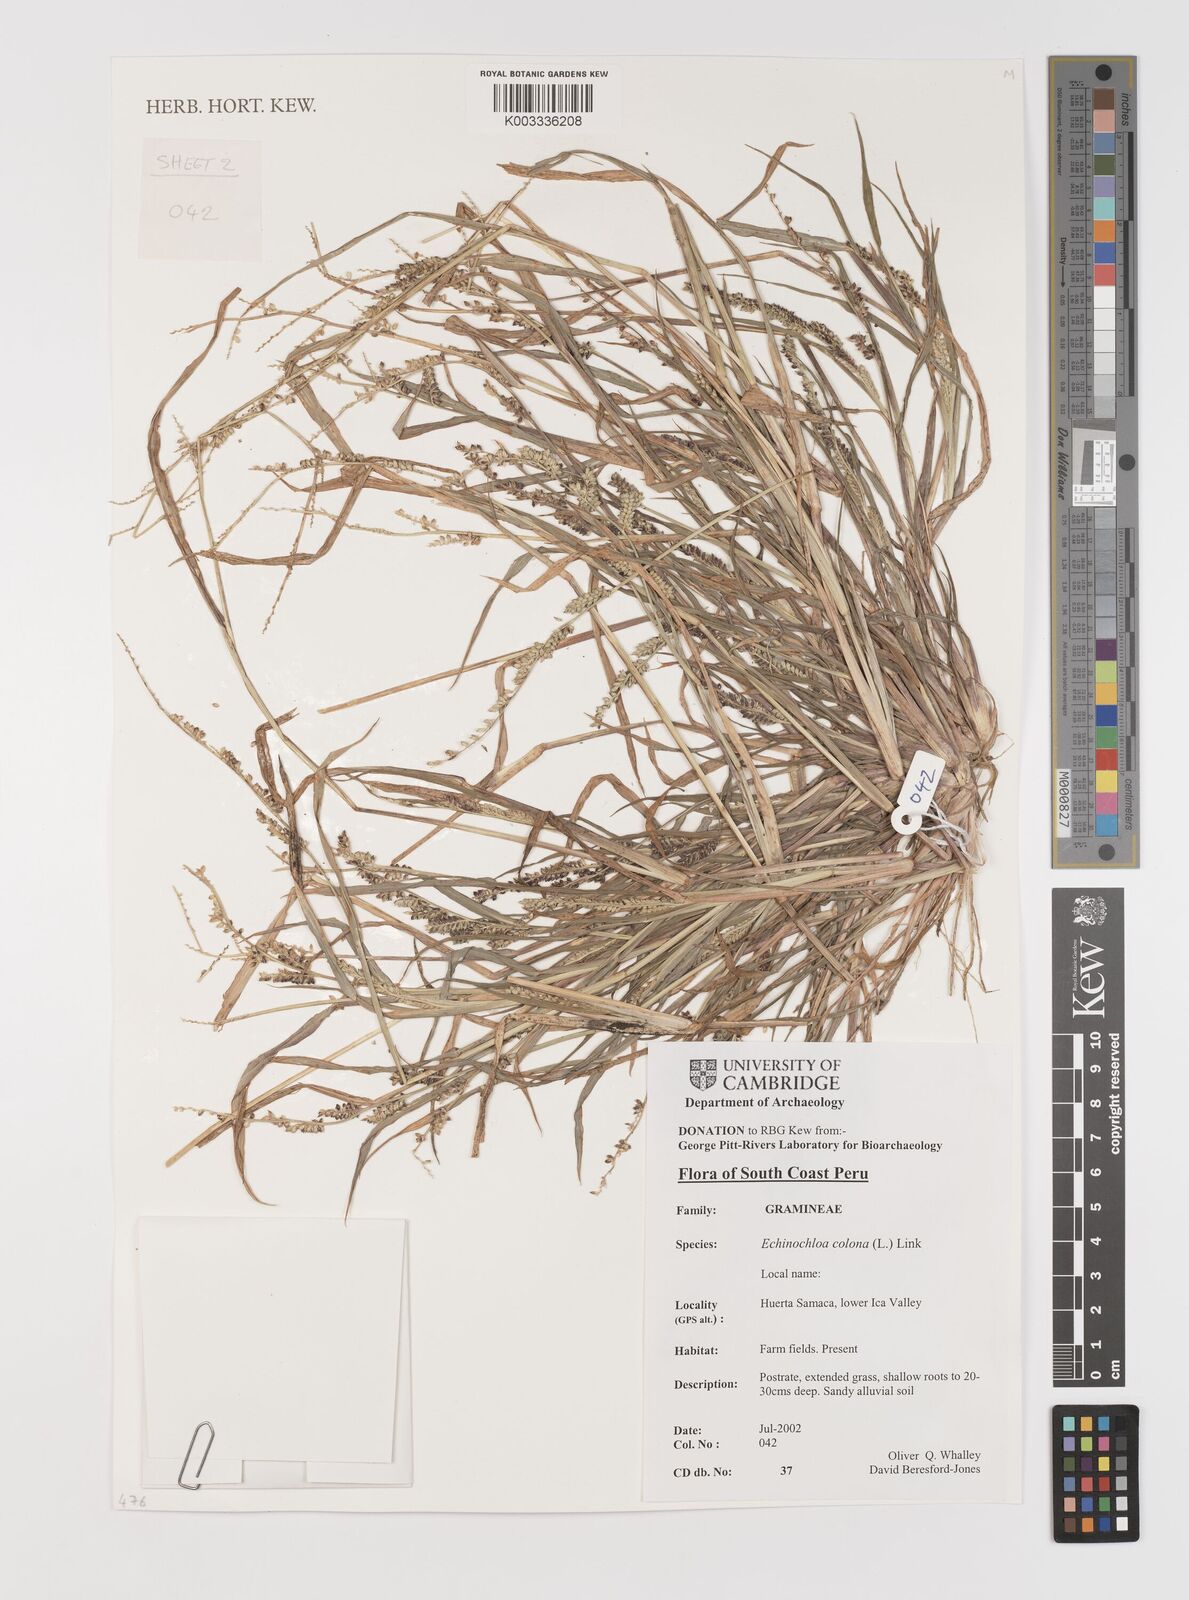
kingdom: Plantae
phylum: Tracheophyta
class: Liliopsida
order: Poales
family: Poaceae
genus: Echinochloa
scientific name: Echinochloa colonum
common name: Jungle rice
